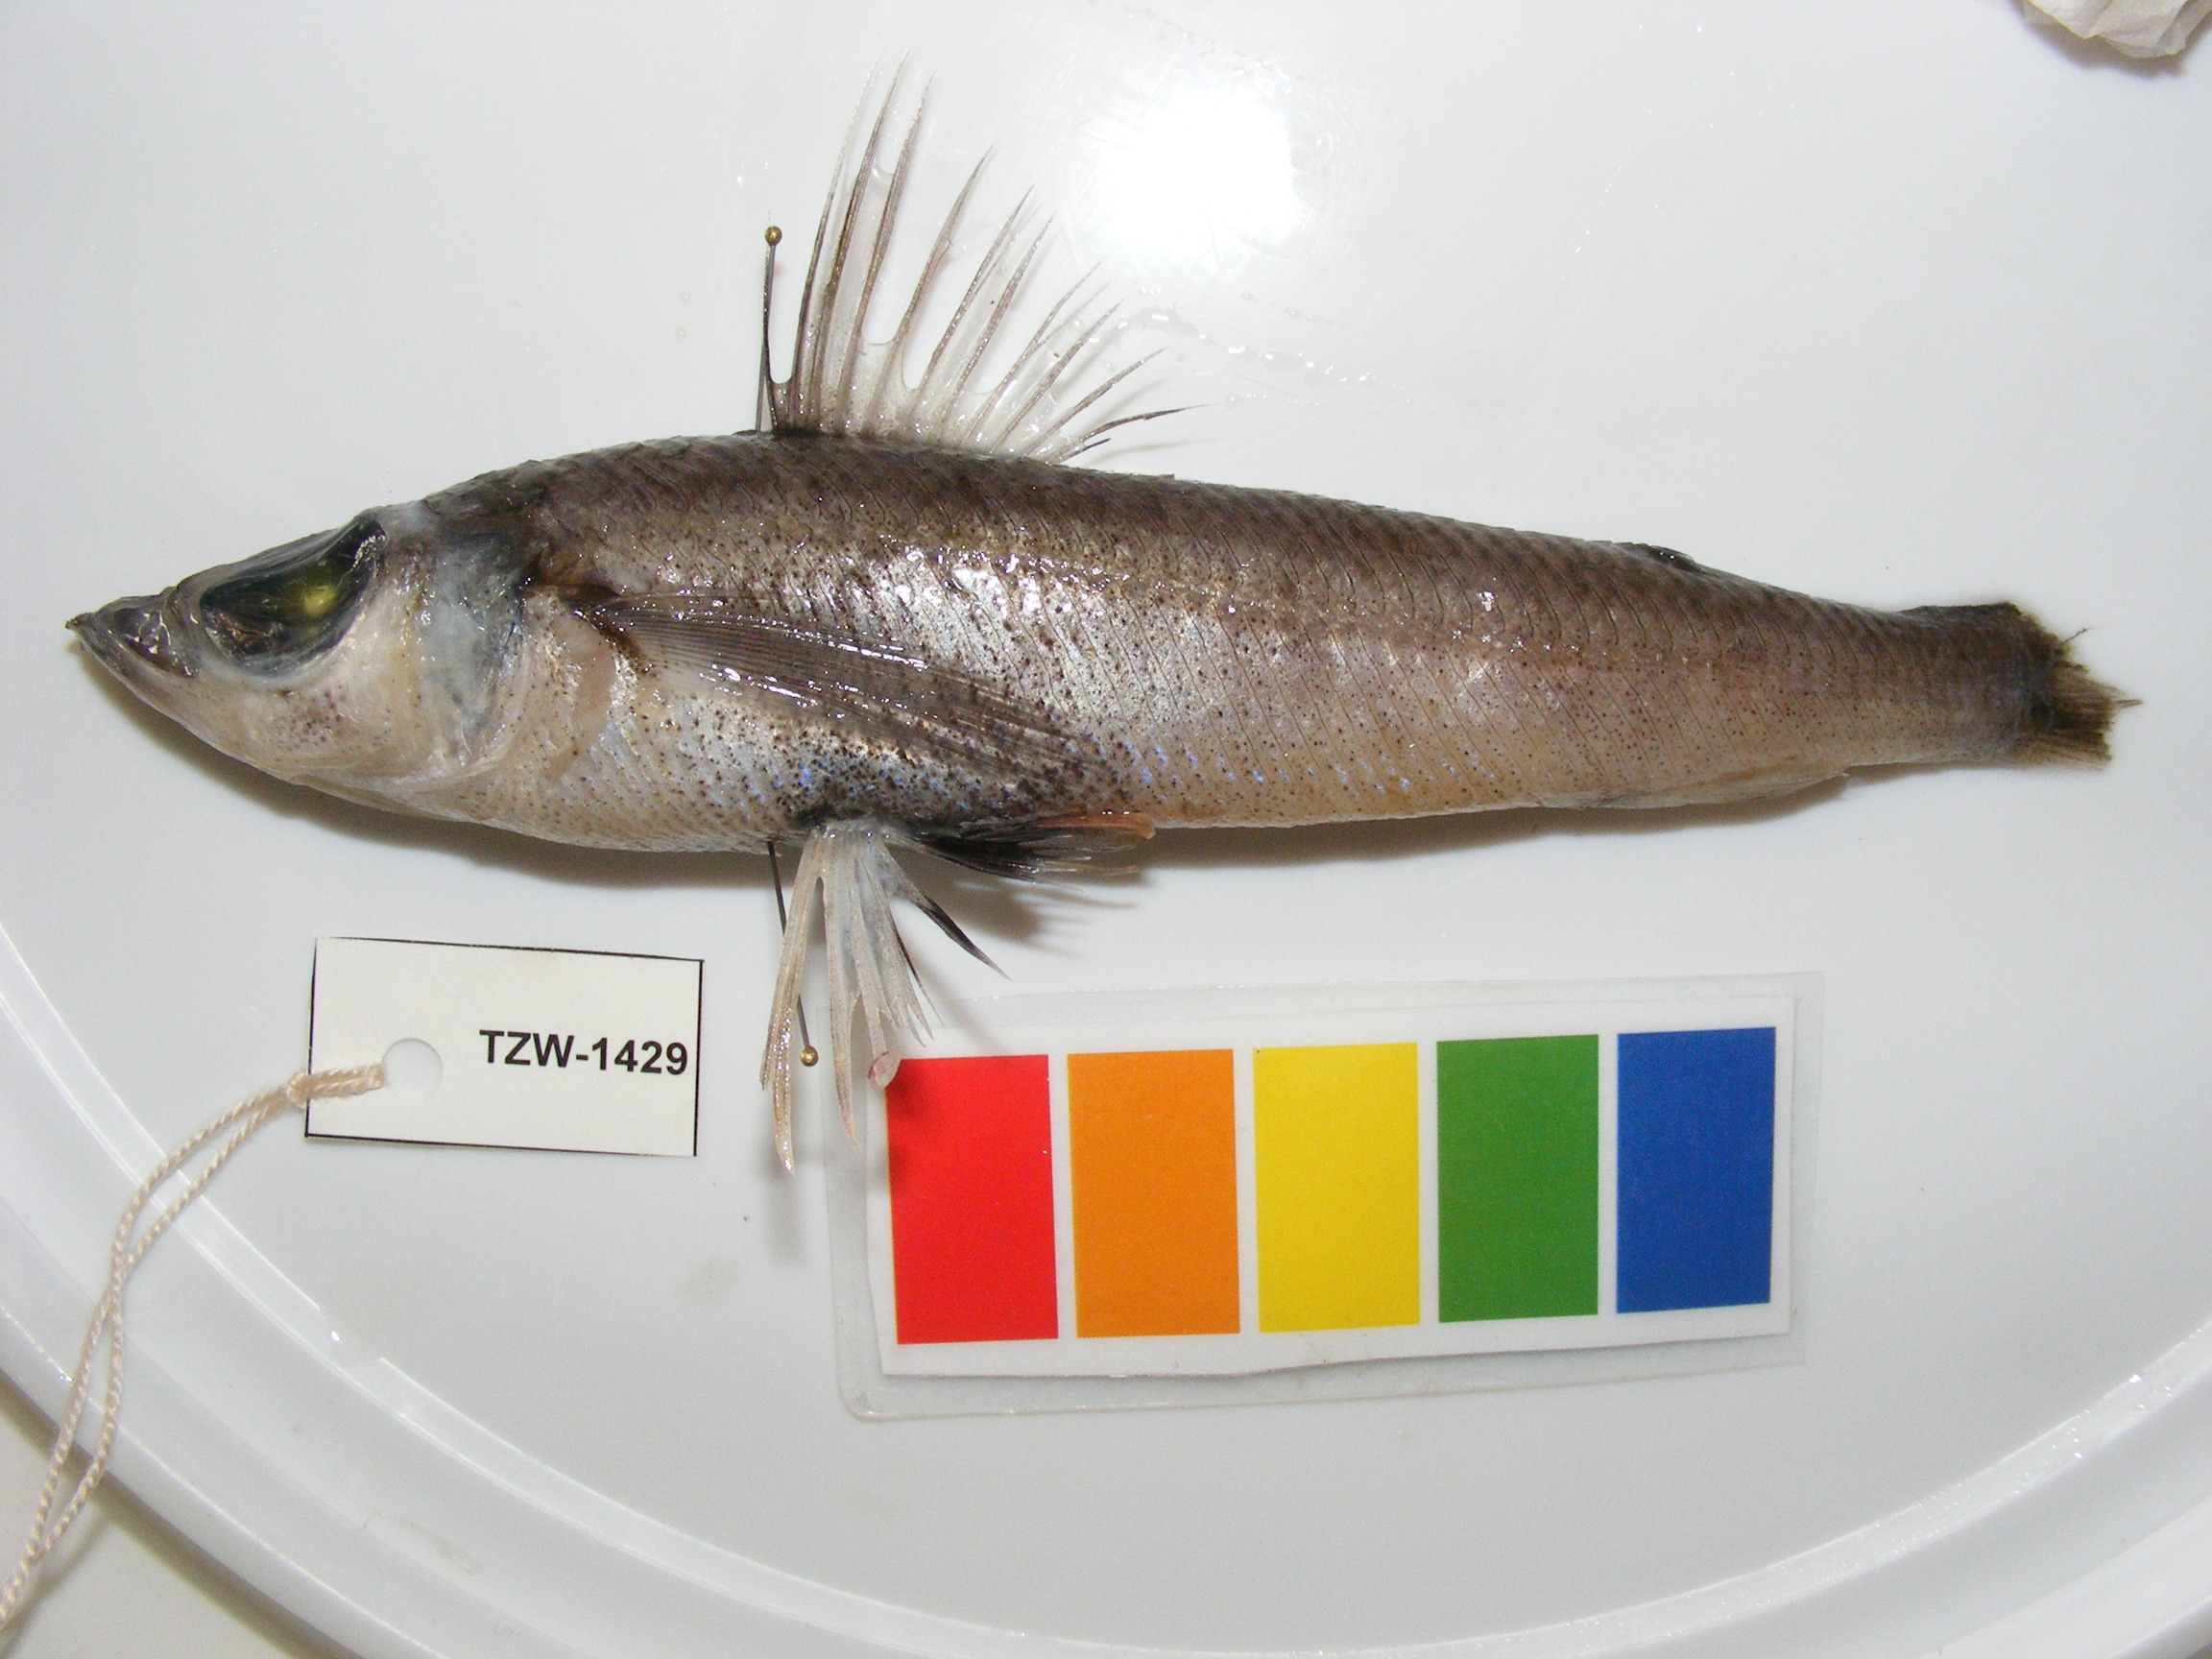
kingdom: Animalia
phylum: Chordata
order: Aulopiformes
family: Chlorophthalmidae
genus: Chlorophthalmus
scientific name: Chlorophthalmus punctatus
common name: Spotted greeneye
